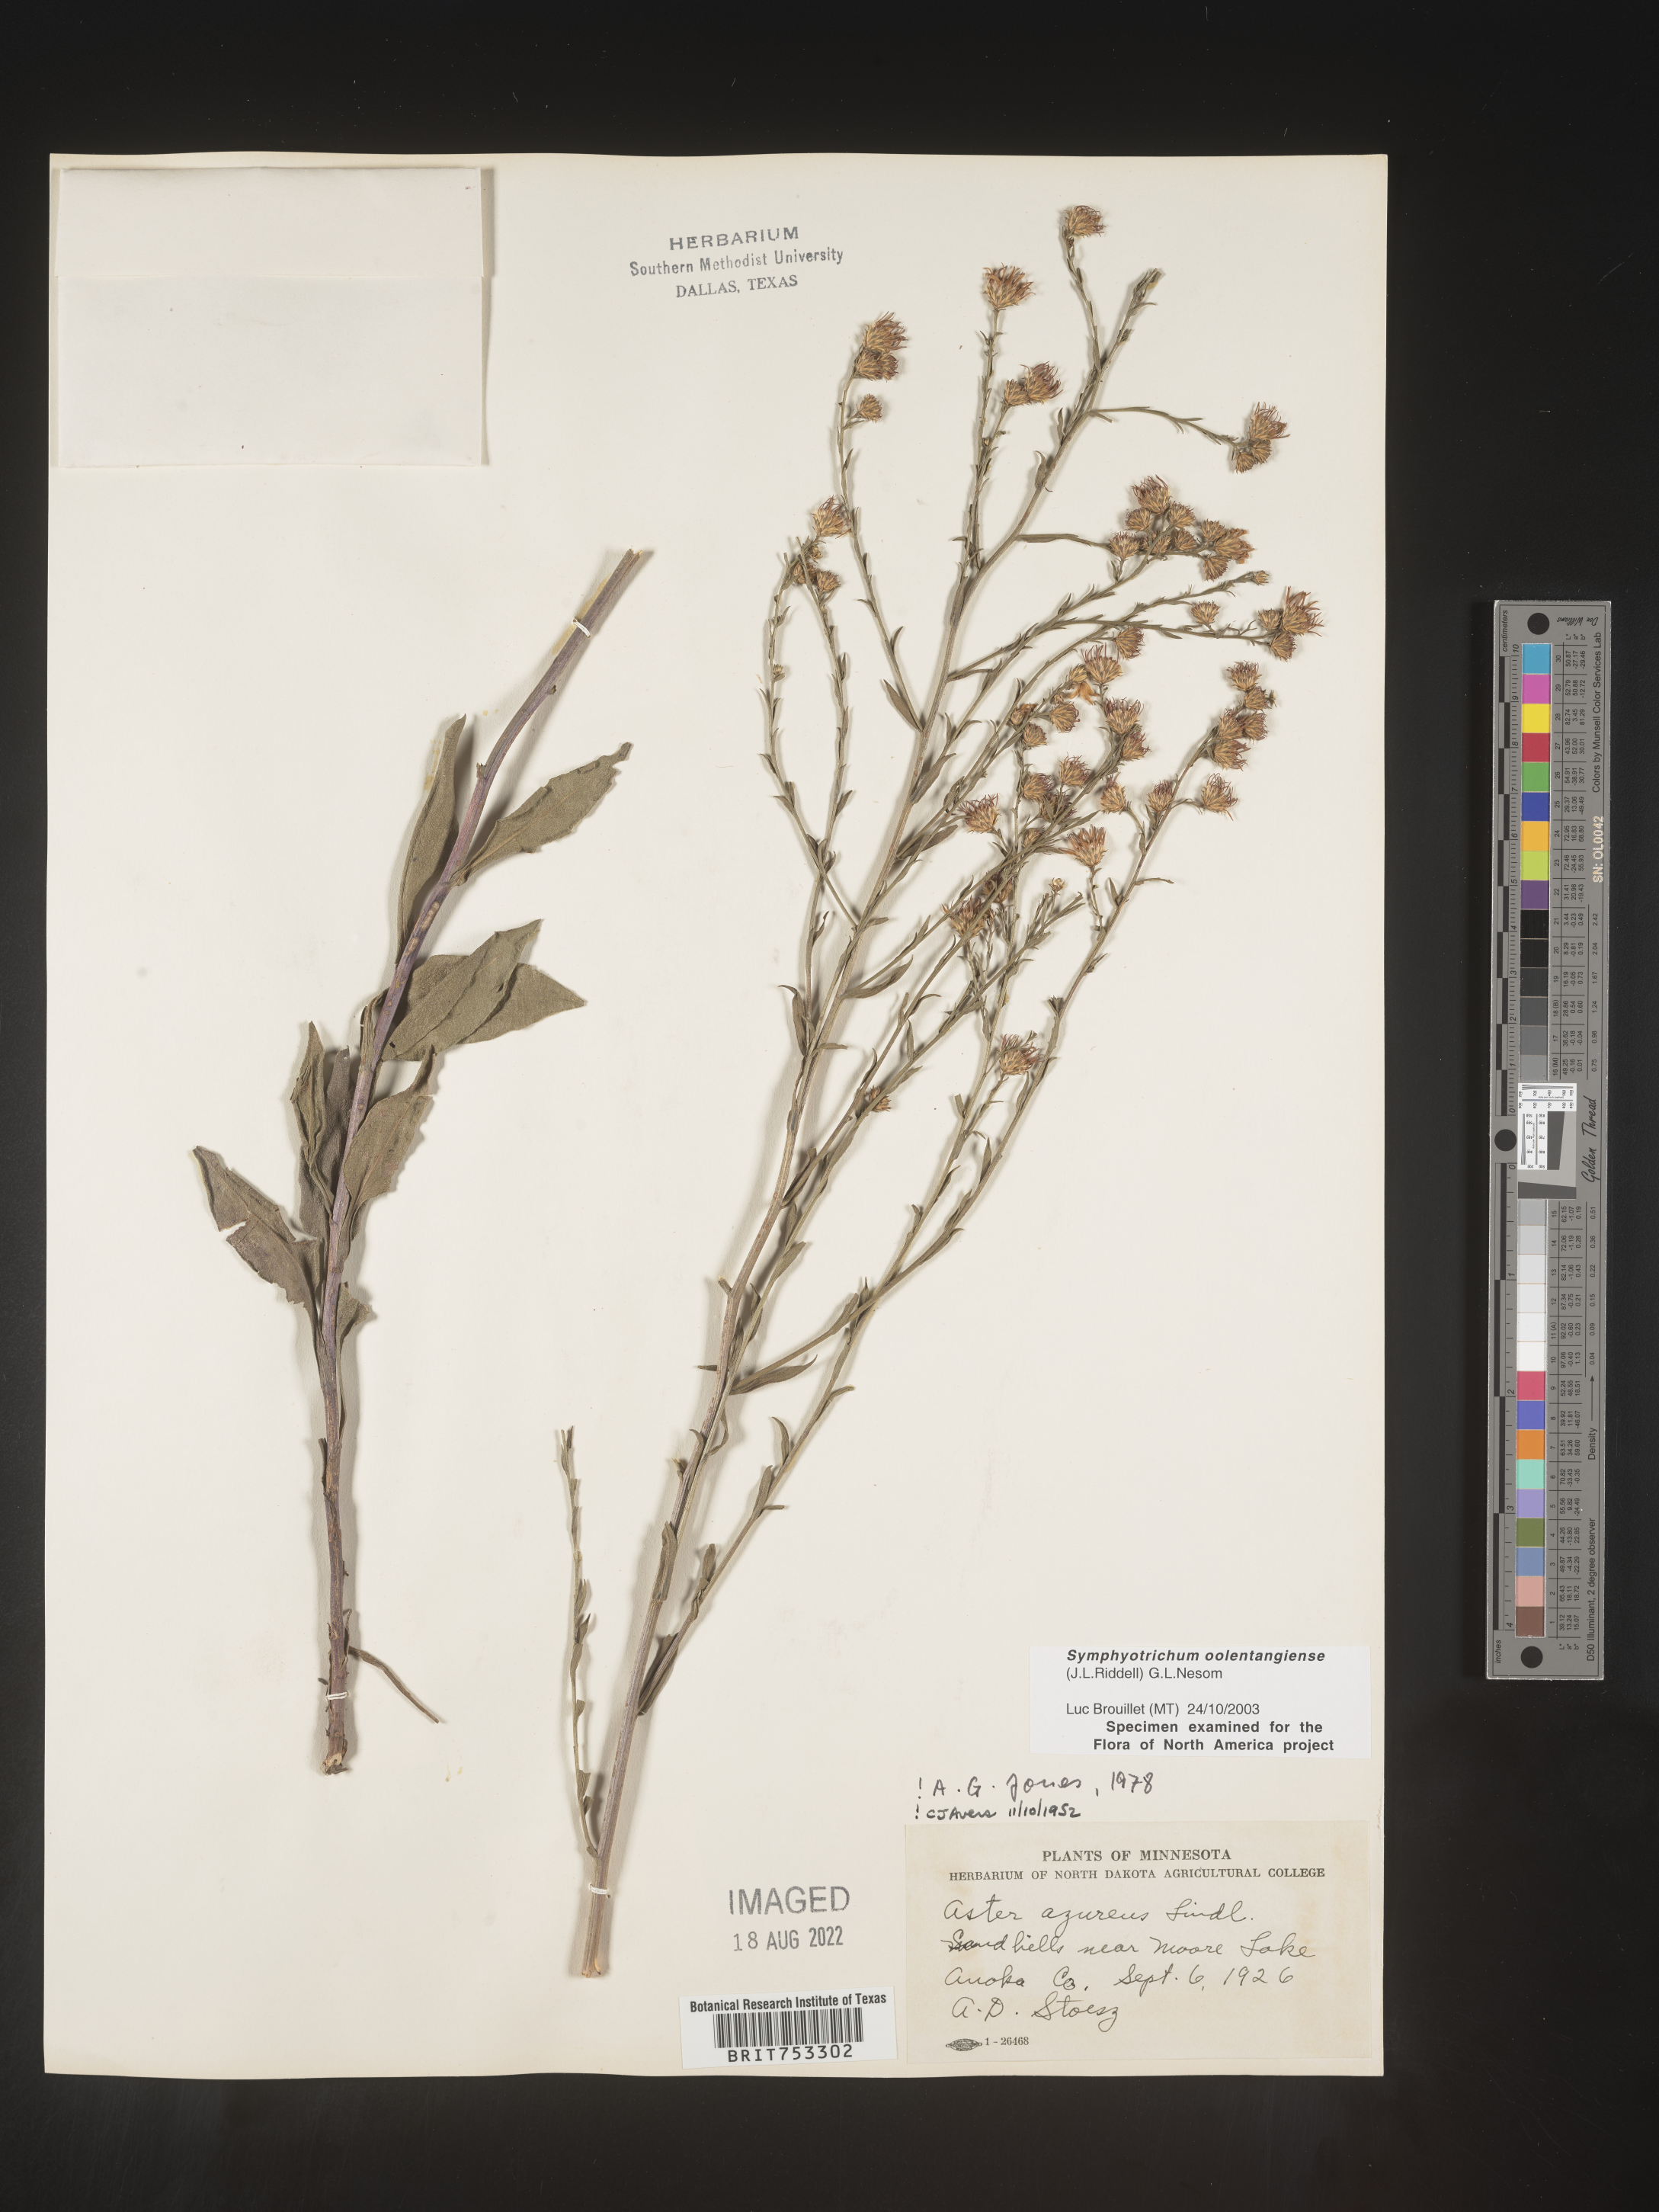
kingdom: Plantae
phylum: Tracheophyta
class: Magnoliopsida
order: Asterales
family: Asteraceae
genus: Symphyotrichum
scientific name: Symphyotrichum oolentangiense
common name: Azure aster
